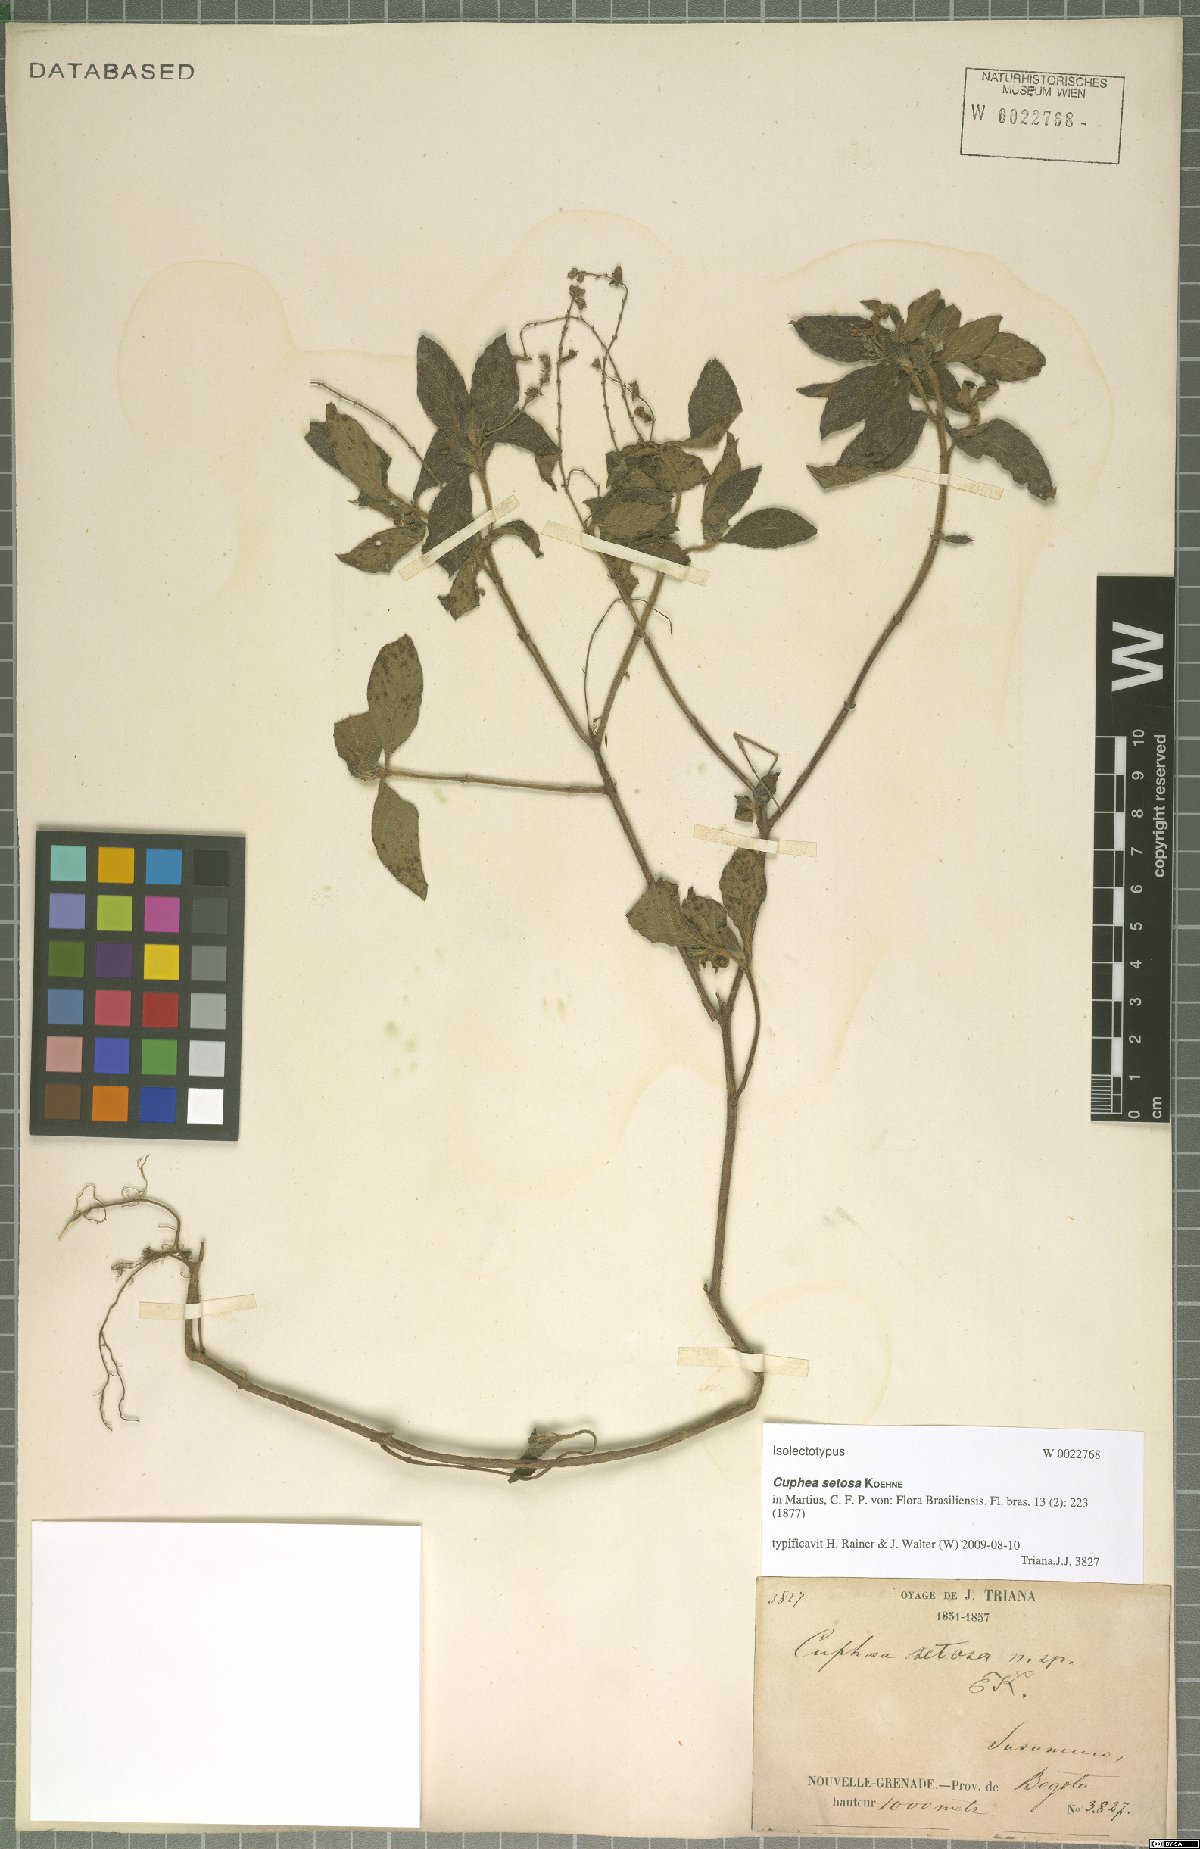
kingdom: Plantae
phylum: Tracheophyta
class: Magnoliopsida
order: Myrtales
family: Lythraceae
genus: Cuphea
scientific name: Cuphea setosa
